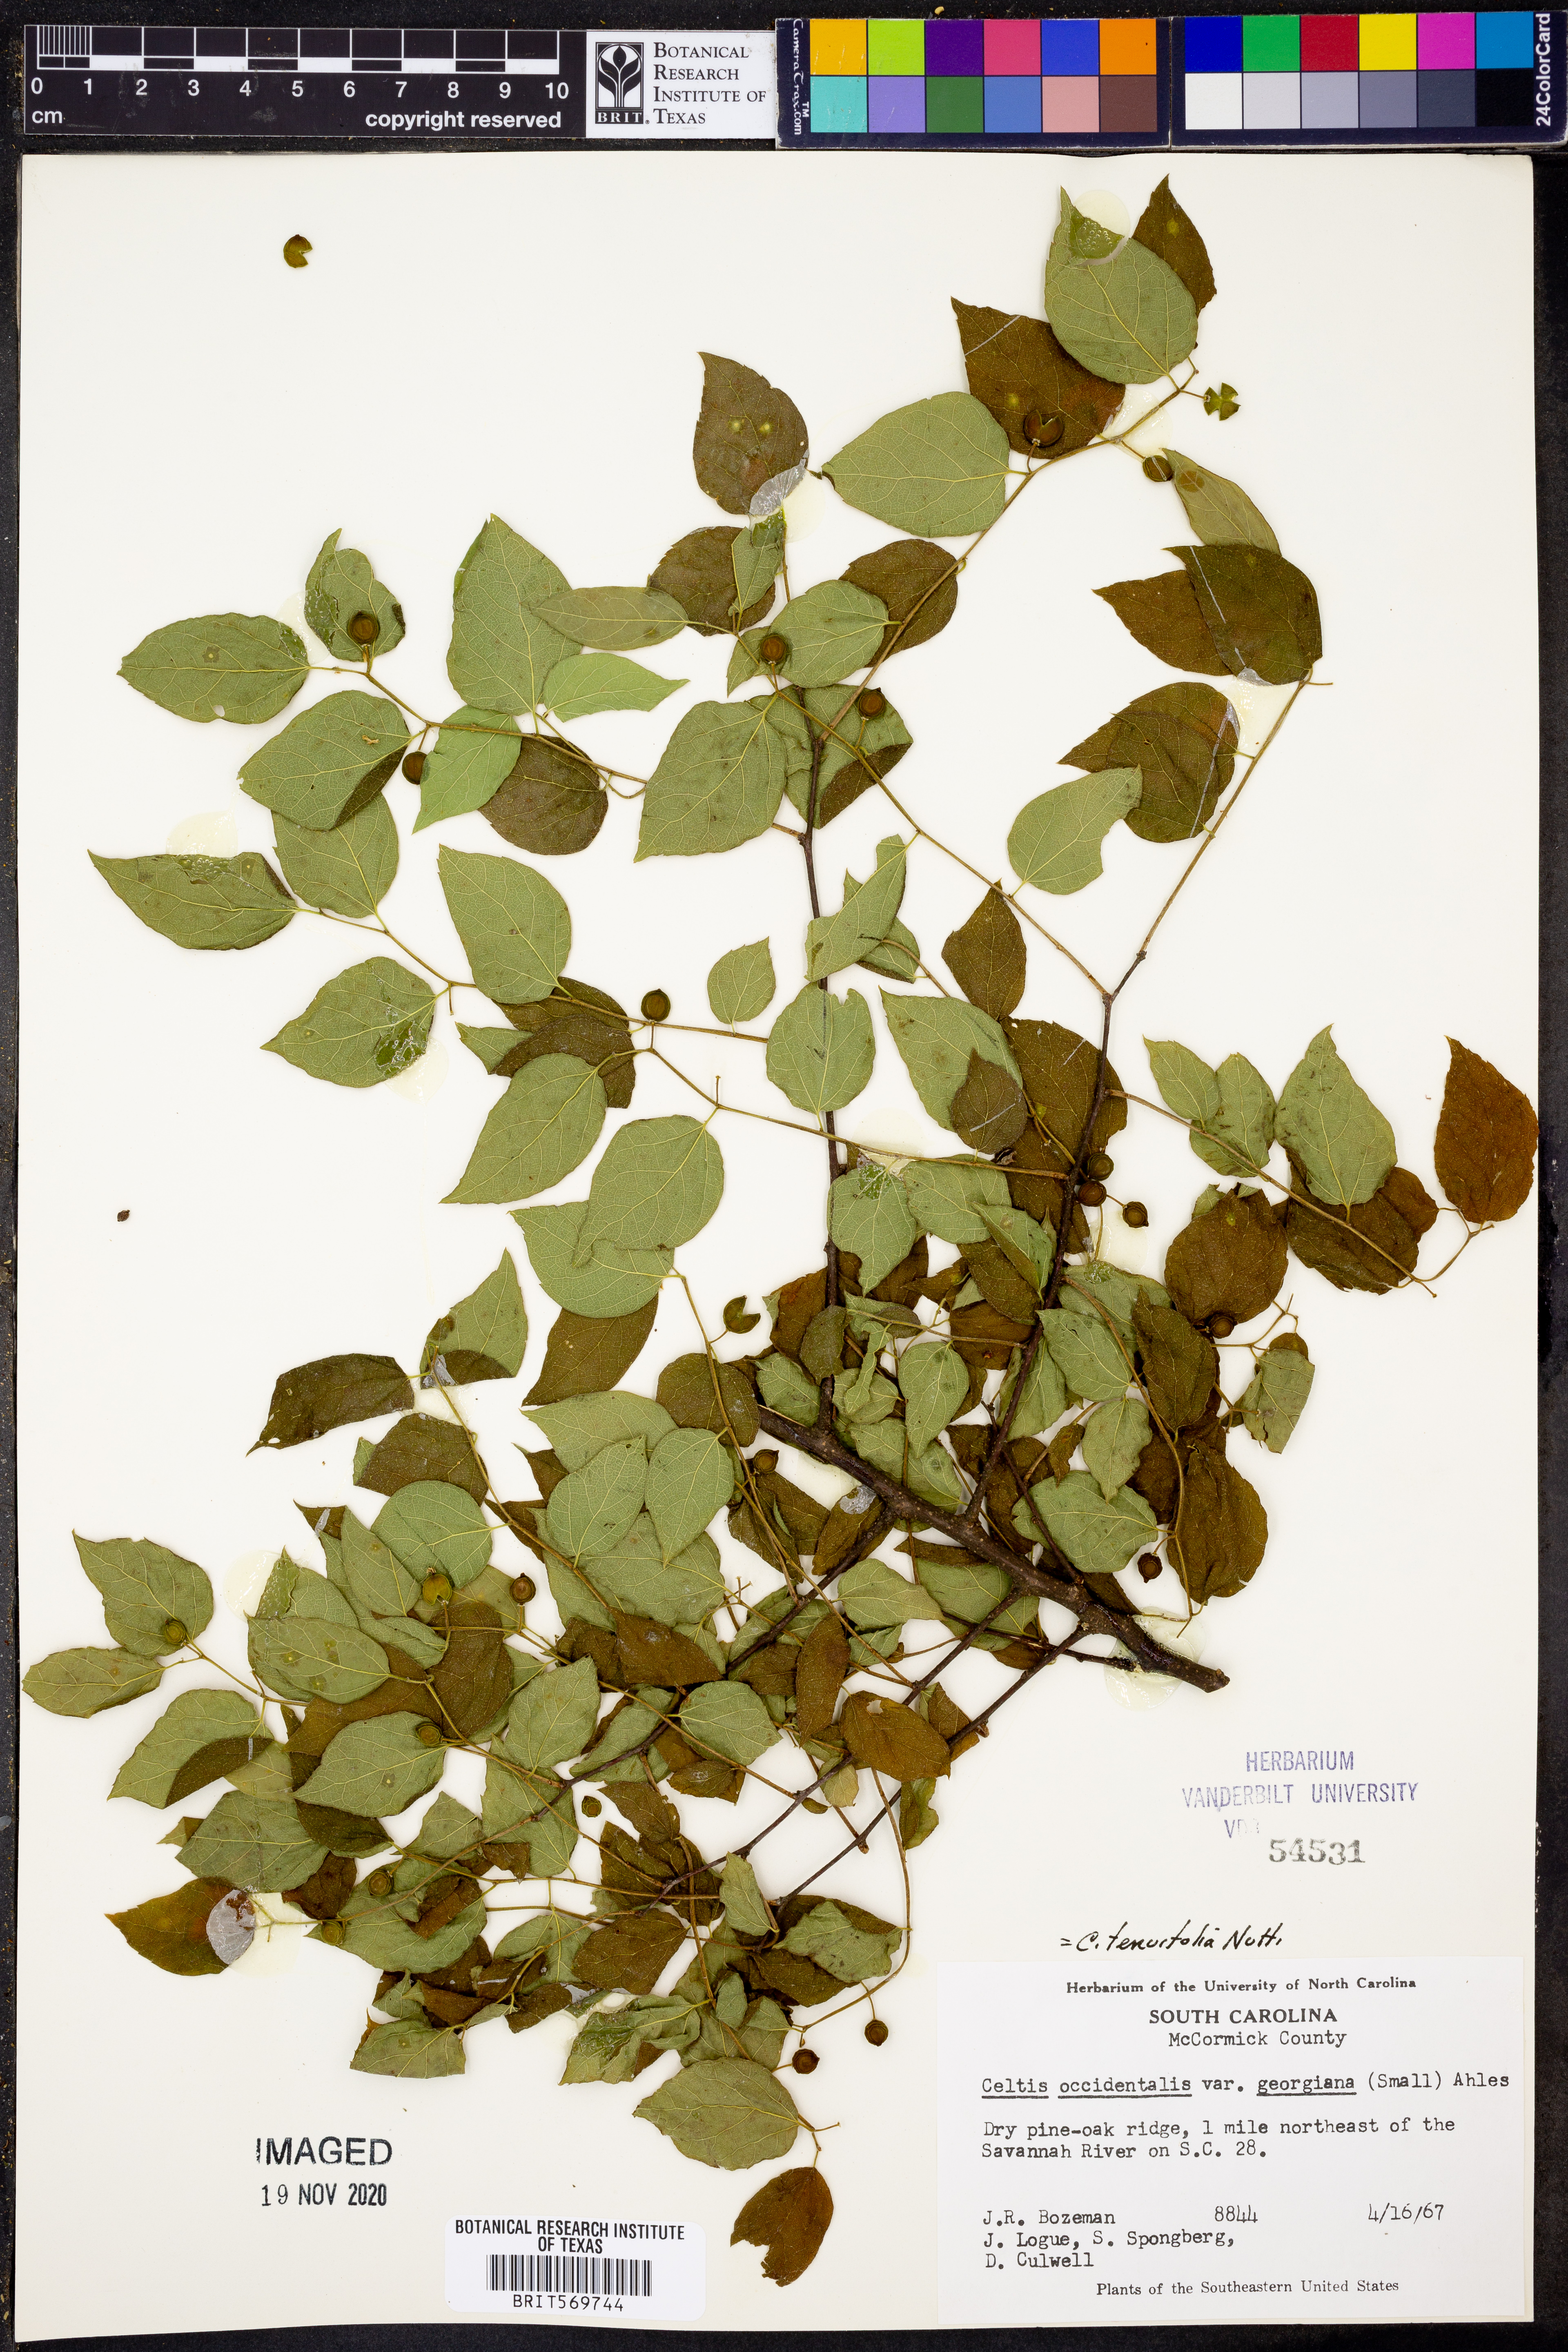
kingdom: Plantae
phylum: Tracheophyta
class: Magnoliopsida
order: Rosales
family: Cannabaceae
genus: Celtis
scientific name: Celtis tenuifolia
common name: Georgia hackberry
